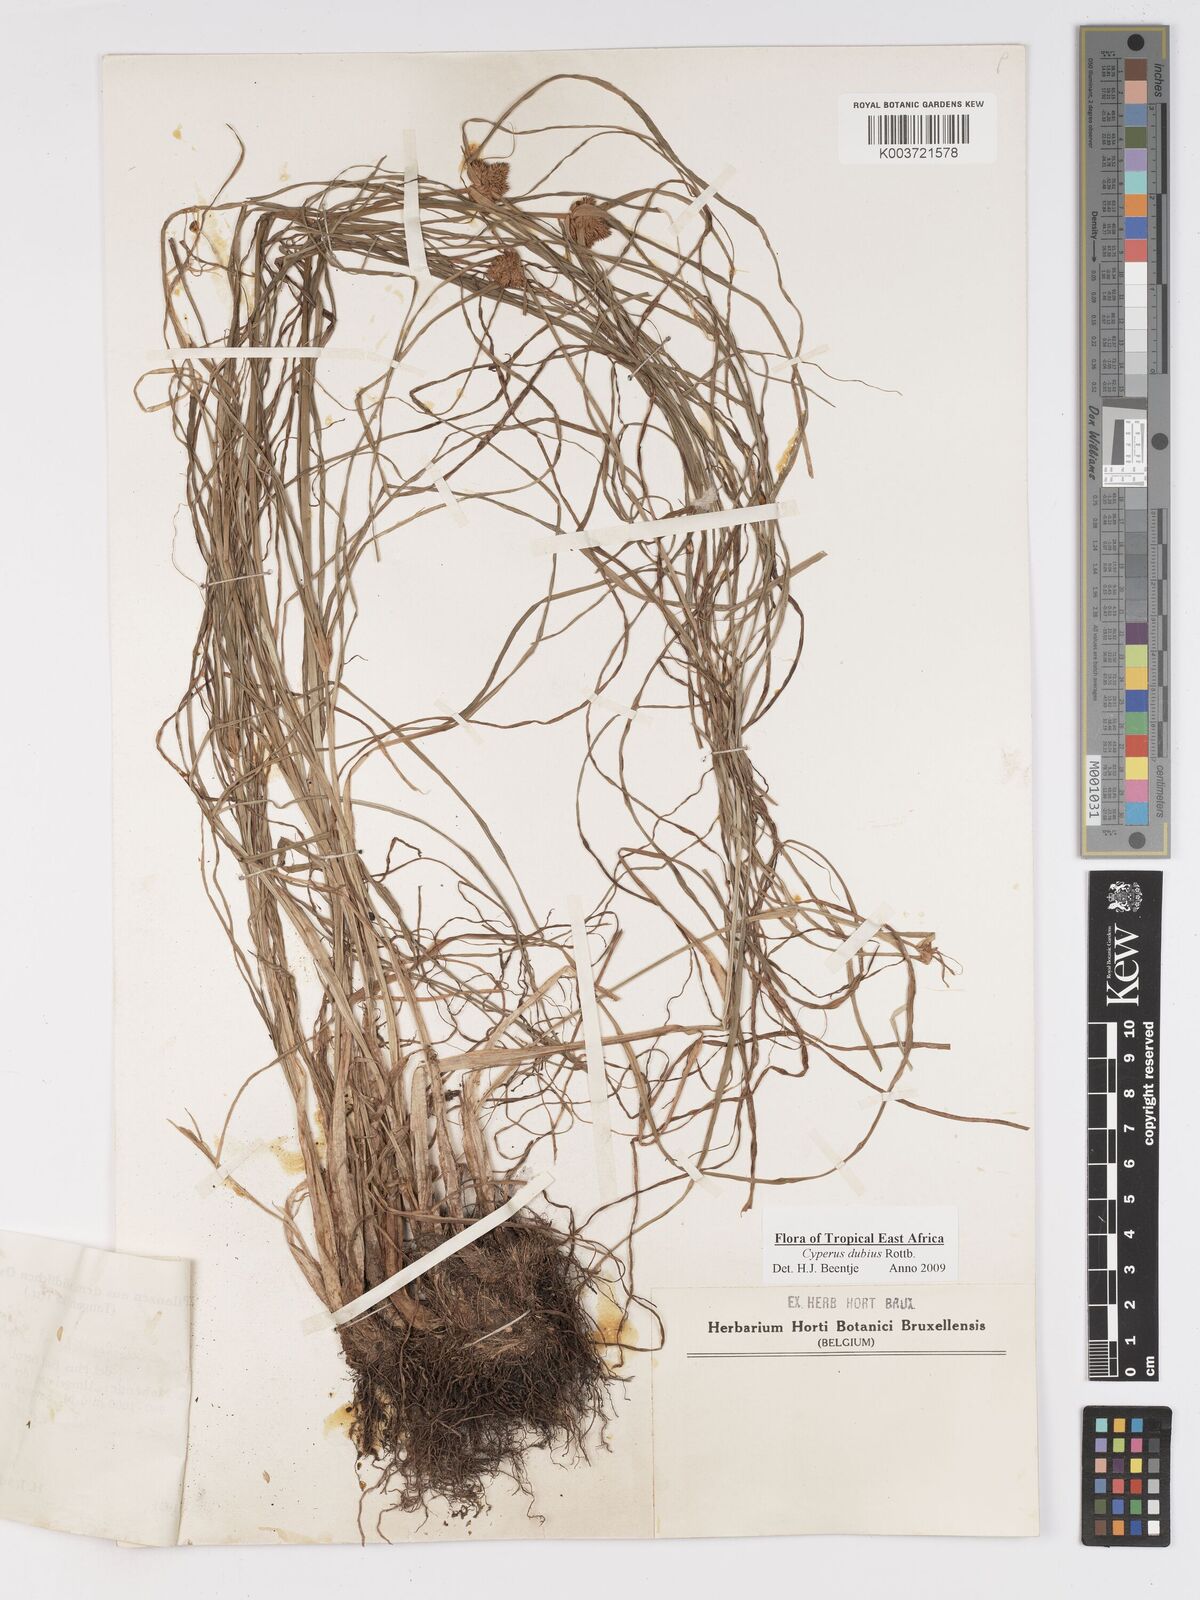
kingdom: Plantae
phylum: Tracheophyta
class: Liliopsida
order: Poales
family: Cyperaceae
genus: Cyperus
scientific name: Cyperus dubius
